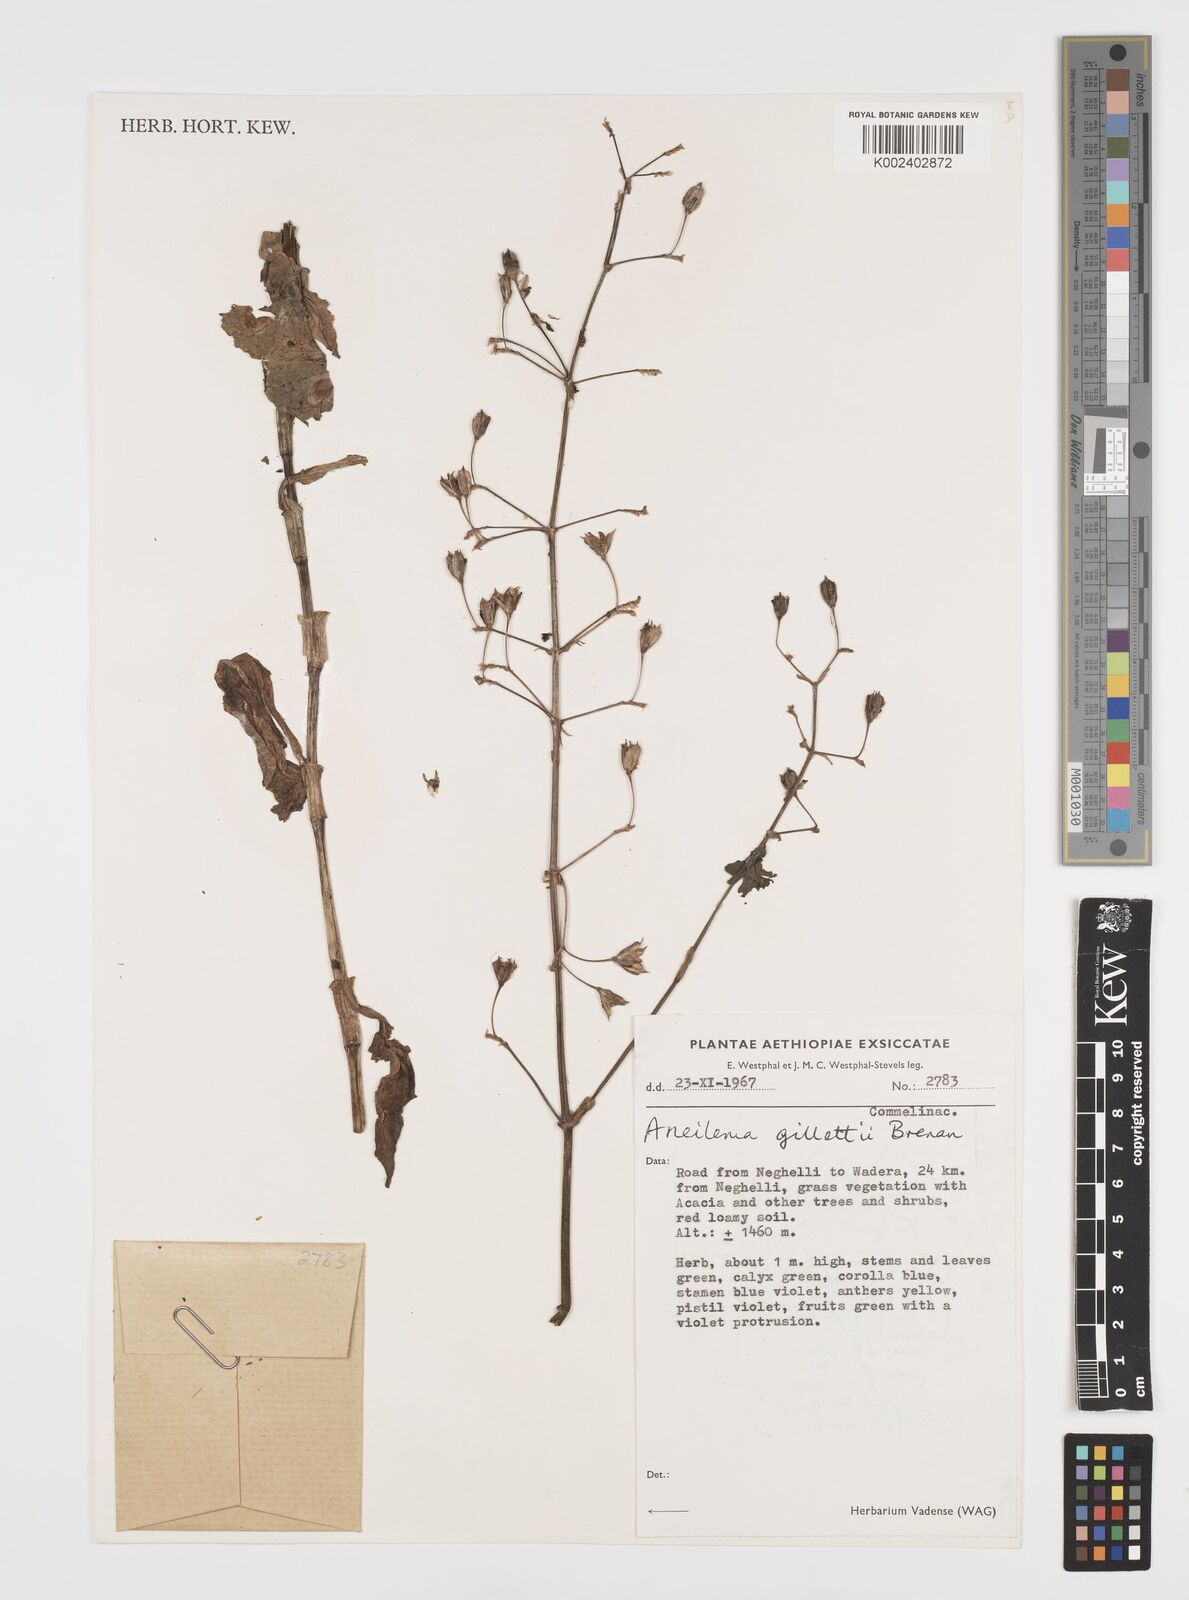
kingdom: Plantae
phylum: Tracheophyta
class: Liliopsida
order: Commelinales
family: Commelinaceae
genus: Aneilema
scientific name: Aneilema gillettii
